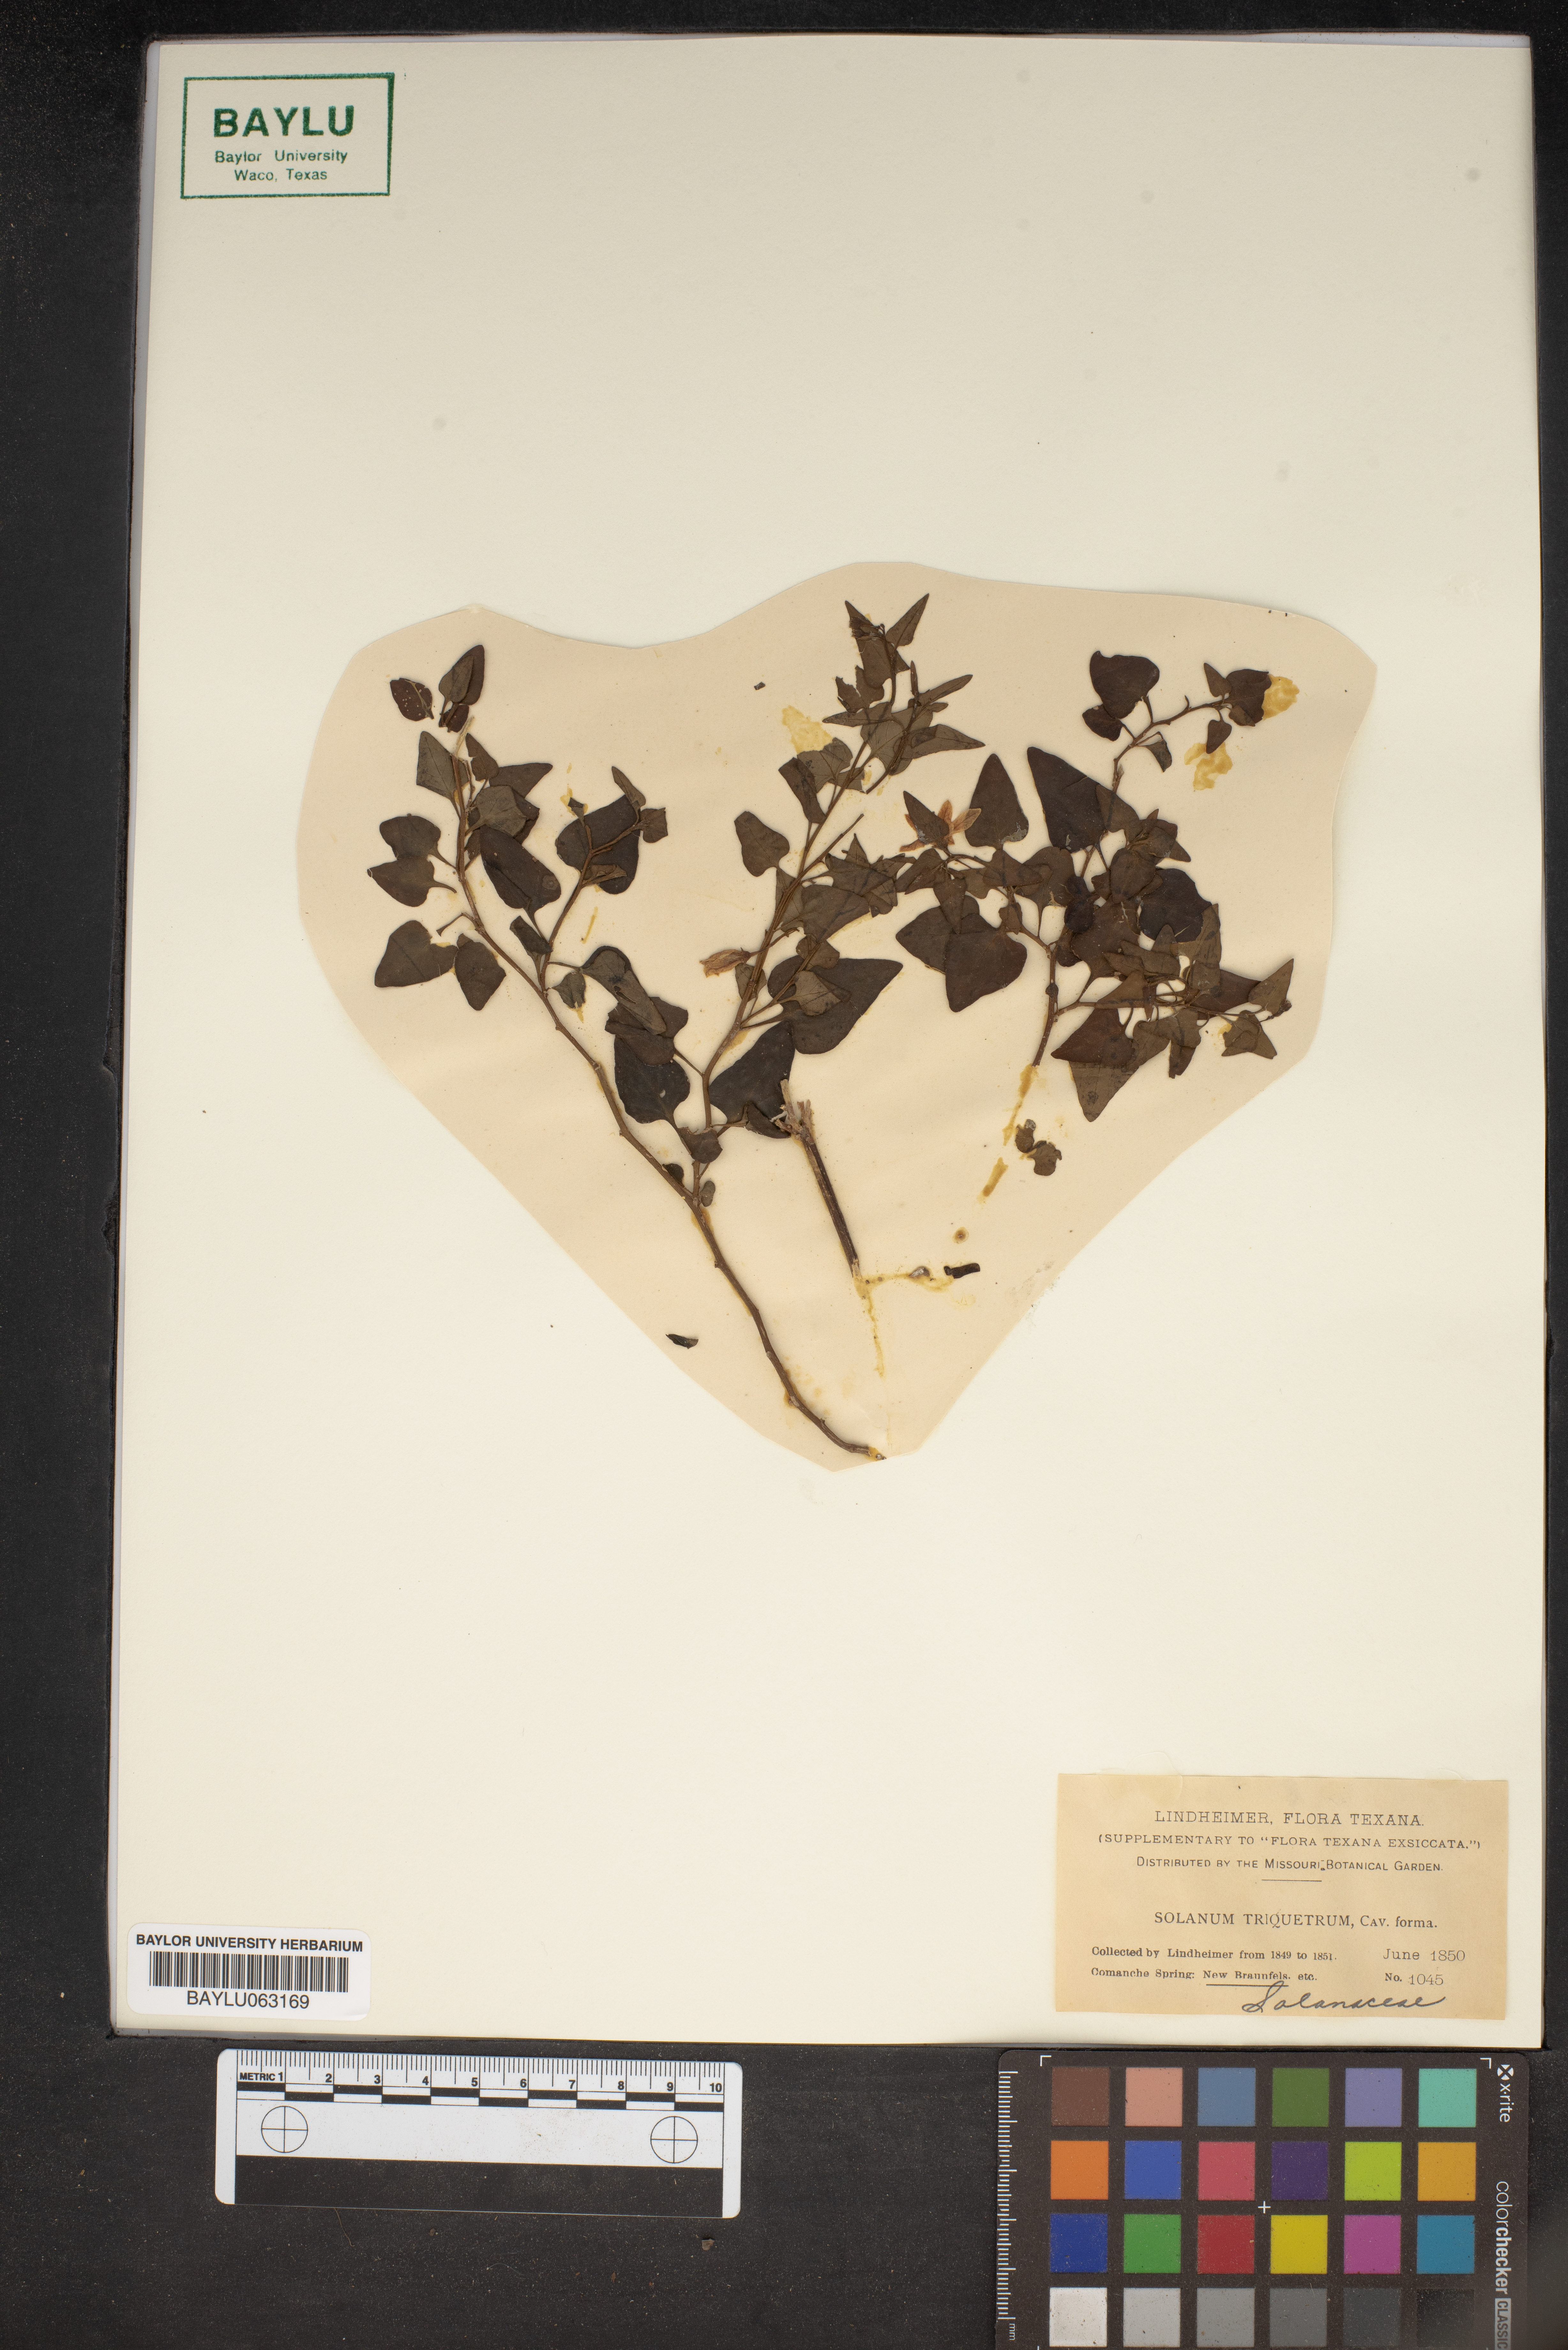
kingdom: Plantae
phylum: Tracheophyta
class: Magnoliopsida
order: Solanales
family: Solanaceae
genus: Solanum
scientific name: Solanum triquetrum
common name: Texas nightshade
